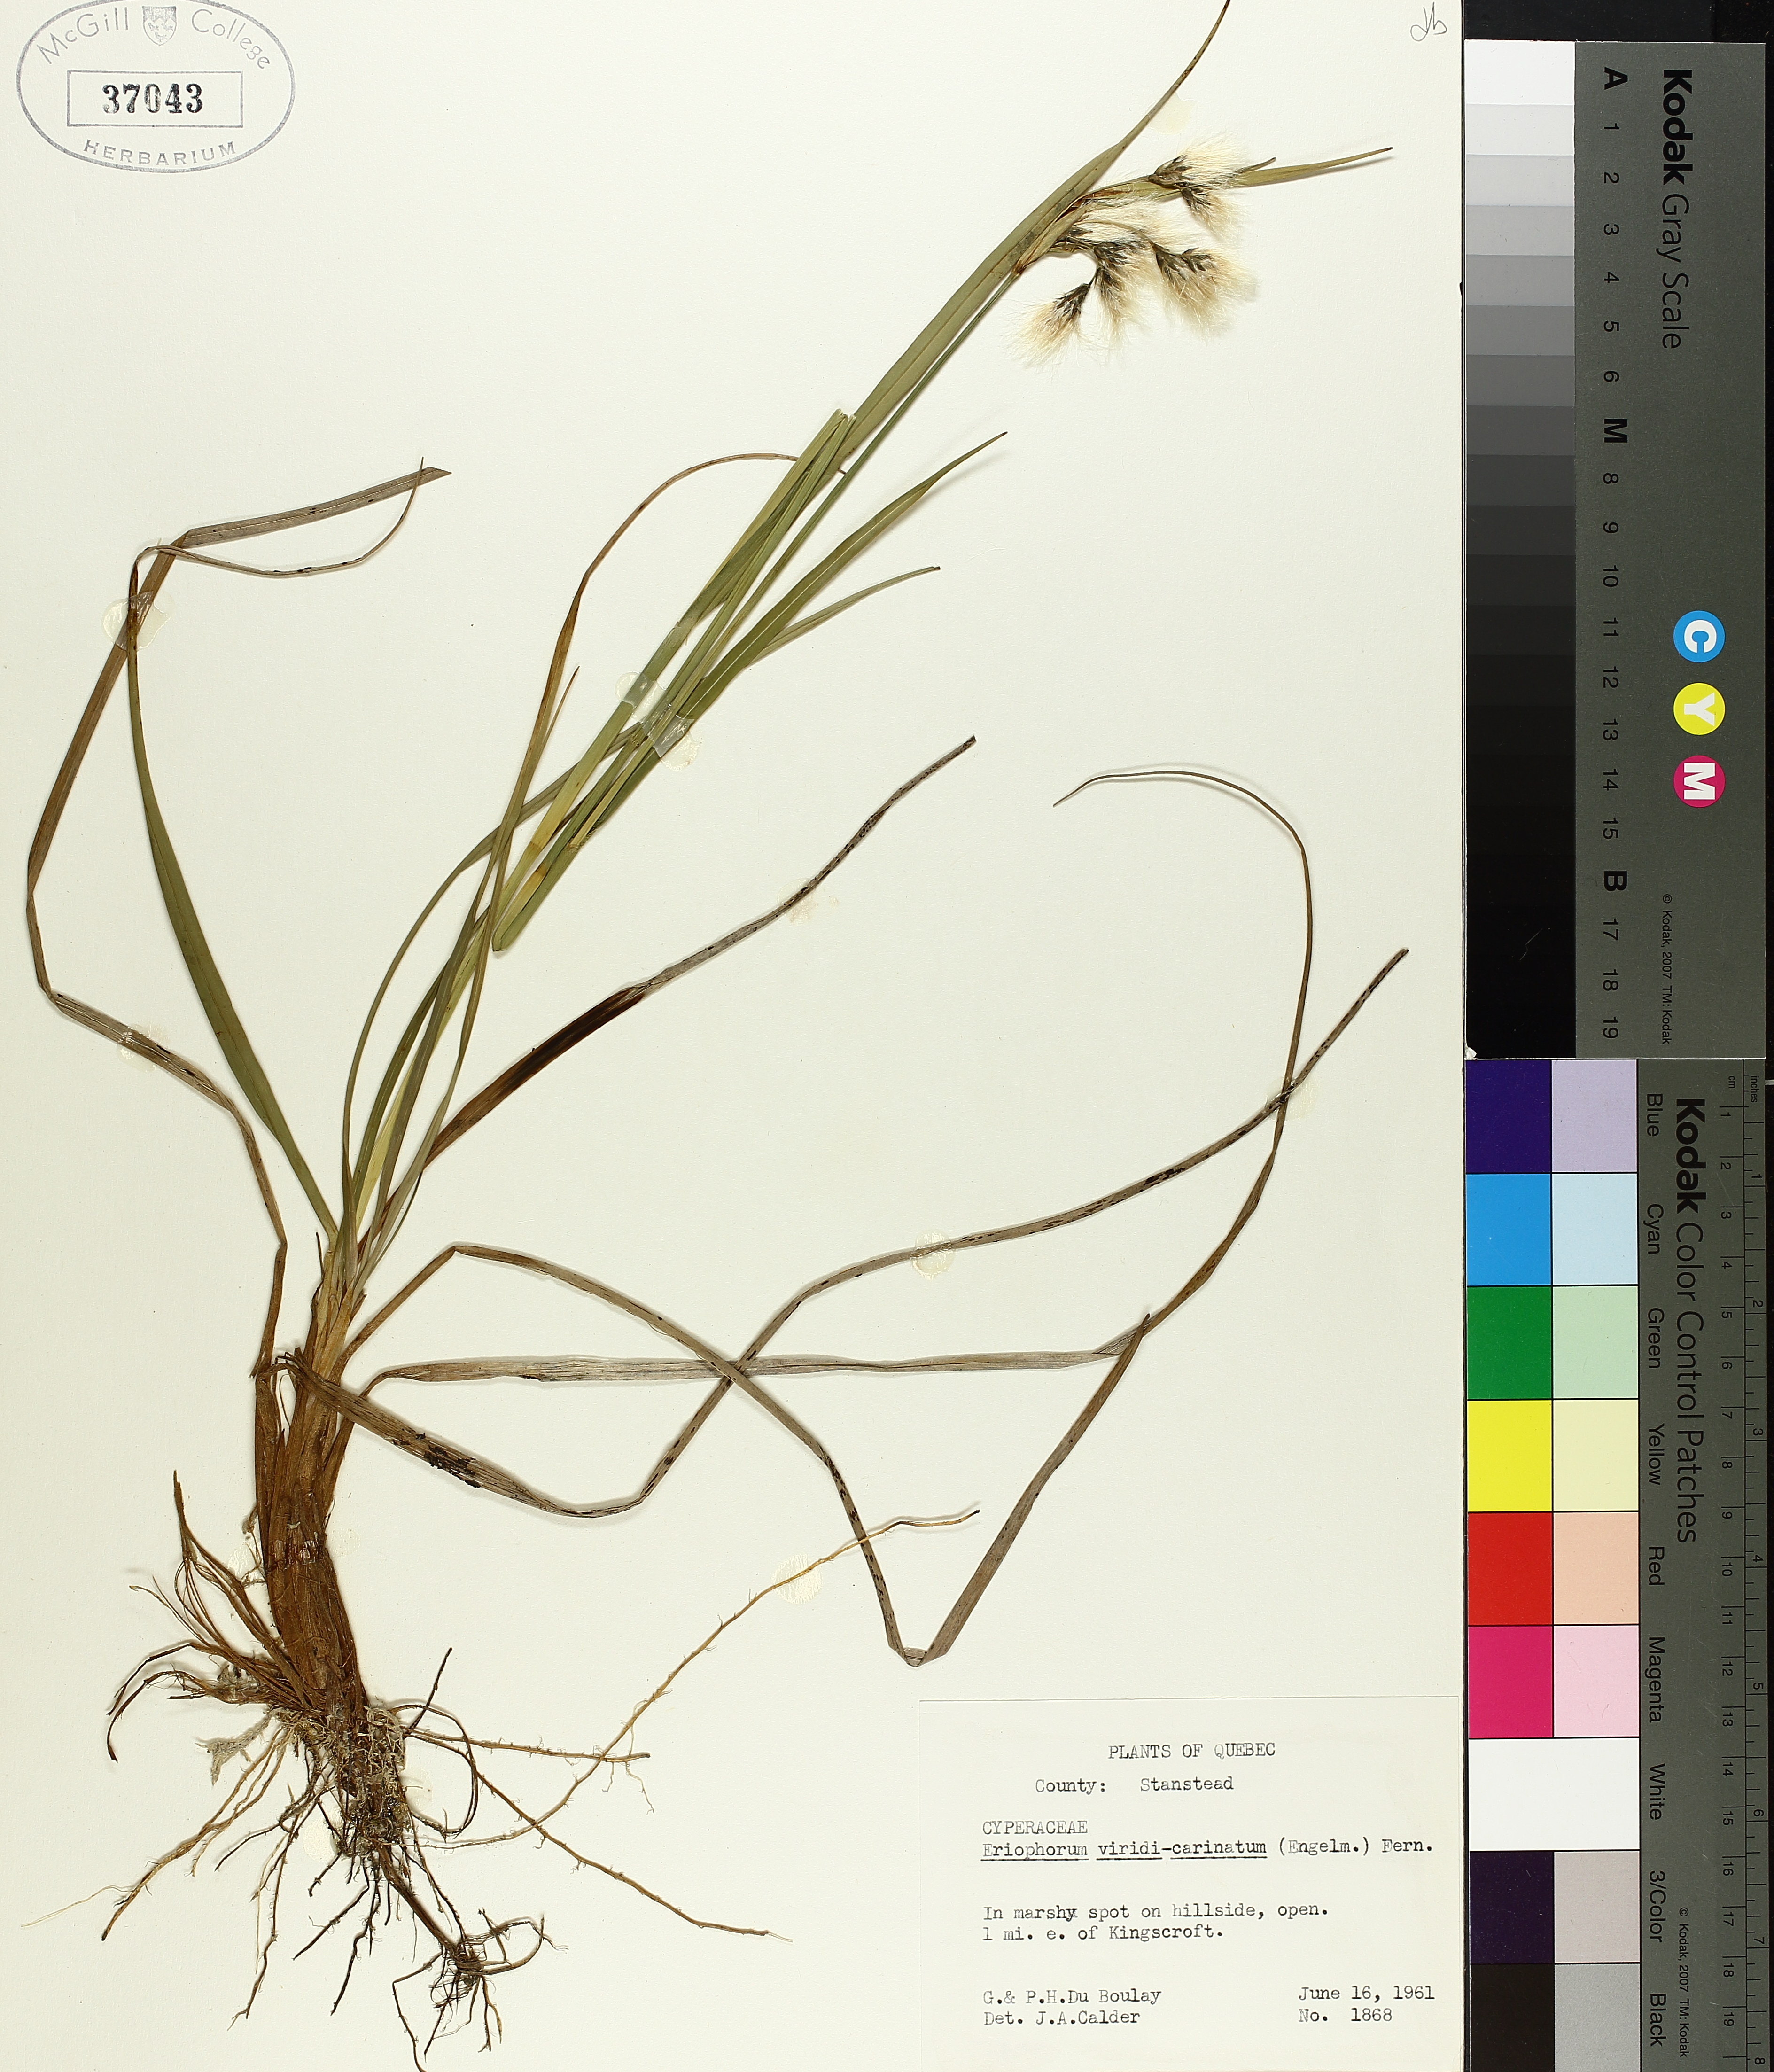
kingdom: Plantae
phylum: Tracheophyta
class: Liliopsida
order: Poales
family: Cyperaceae
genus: Eriophorum
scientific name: Eriophorum viridicarinatum
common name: Green-keeled cottongrass
